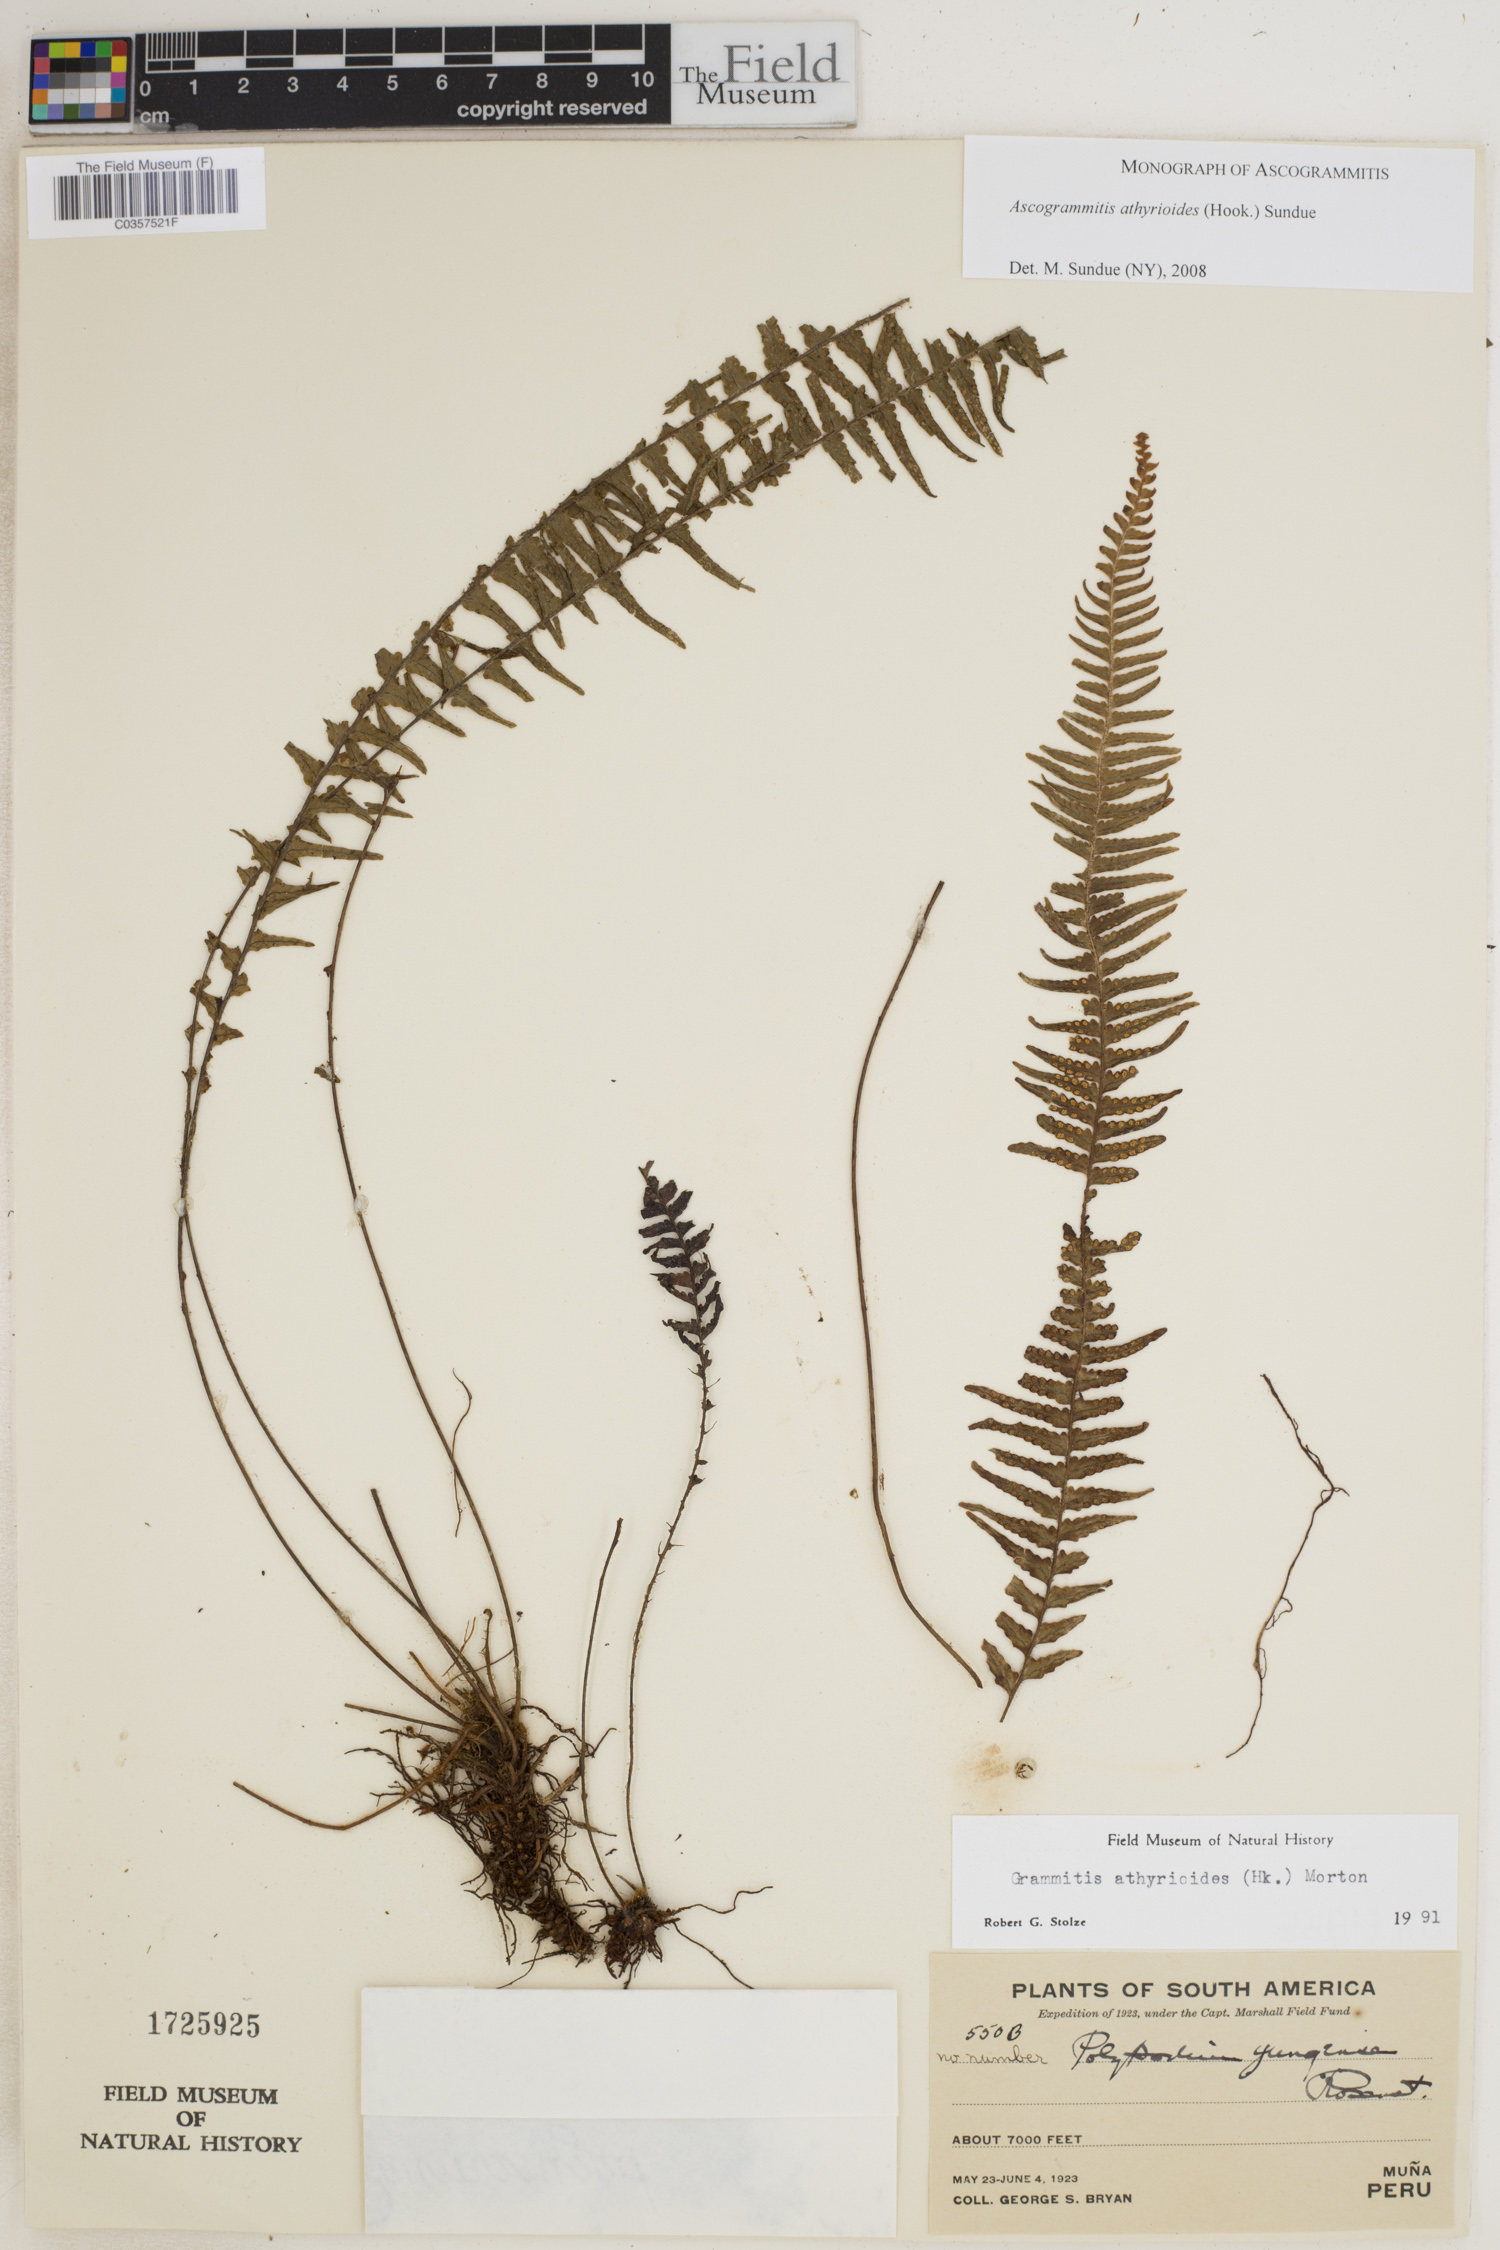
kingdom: Plantae
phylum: Tracheophyta
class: Polypodiopsida
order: Polypodiales
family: Polypodiaceae
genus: Ascogrammitis
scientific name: Ascogrammitis athyrioides
